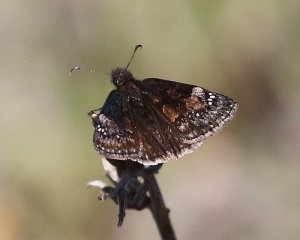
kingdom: Animalia
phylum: Arthropoda
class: Insecta
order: Lepidoptera
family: Hesperiidae
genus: Gesta
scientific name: Gesta
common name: Wild Indigo Duskywing
